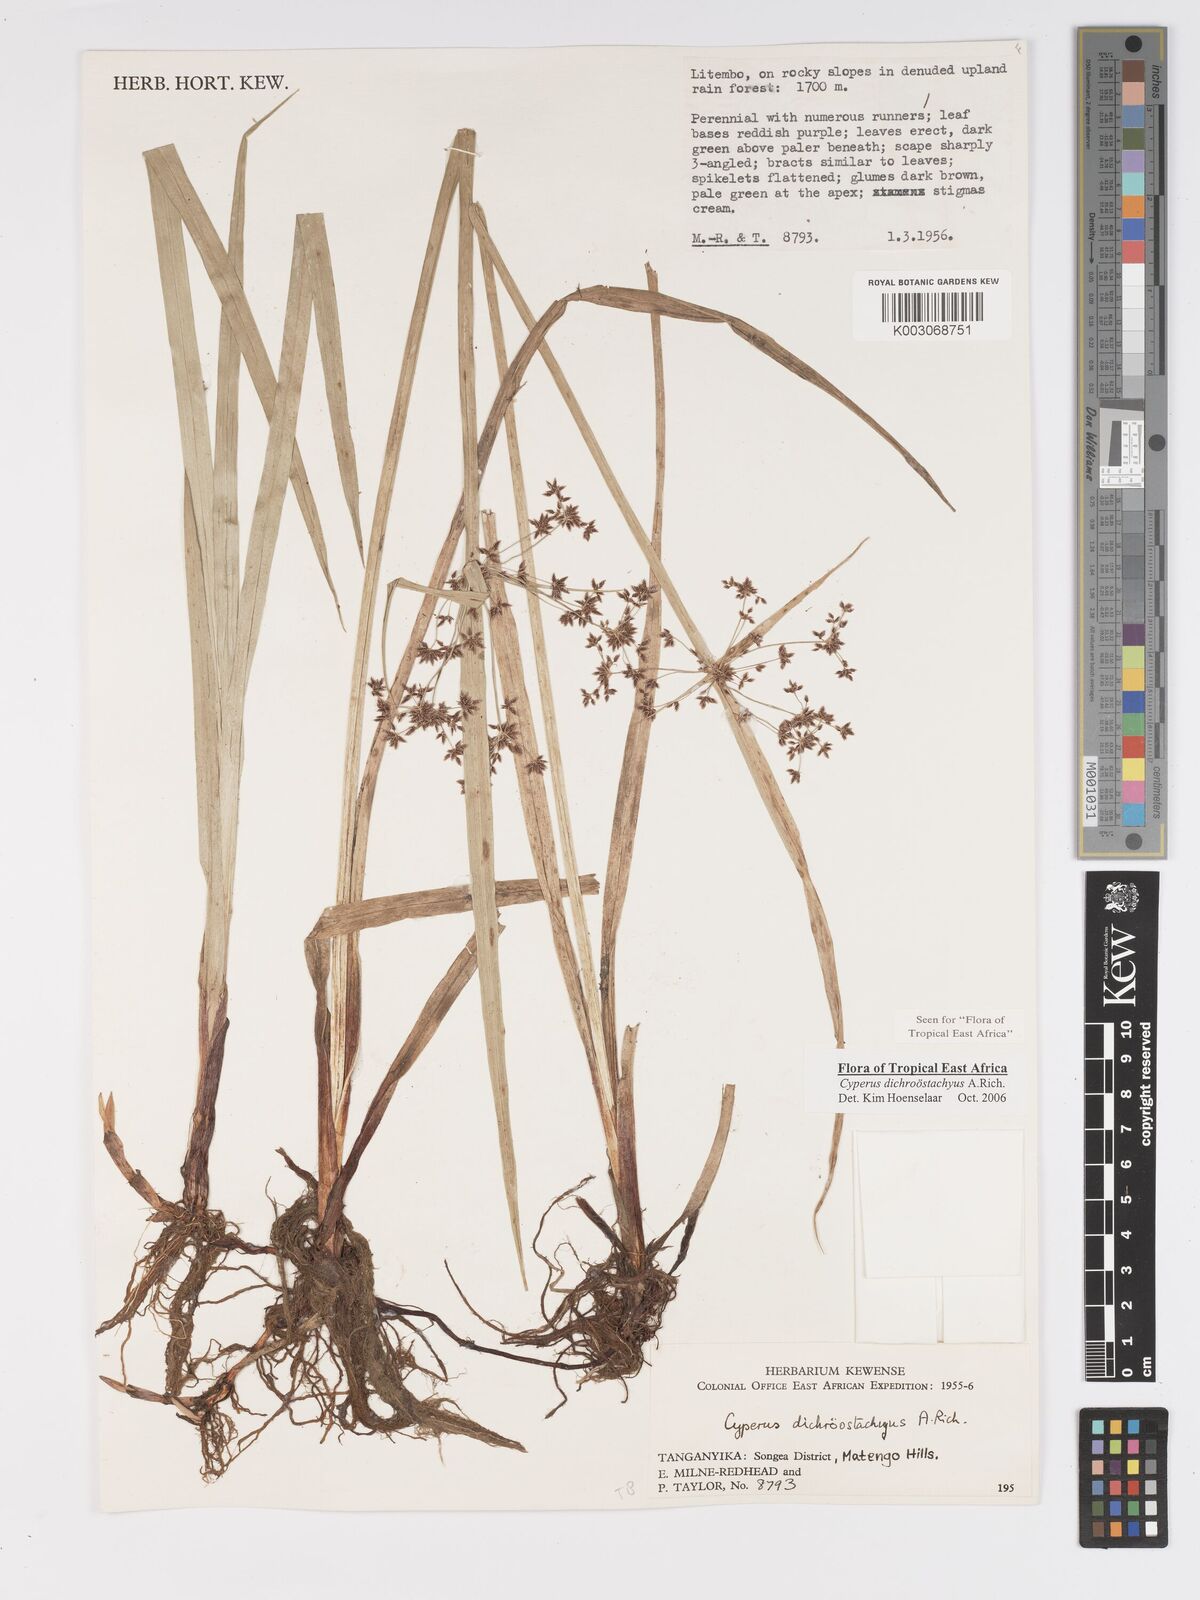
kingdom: Plantae
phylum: Tracheophyta
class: Liliopsida
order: Poales
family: Cyperaceae
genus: Cyperus
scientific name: Cyperus dichrostachyus
